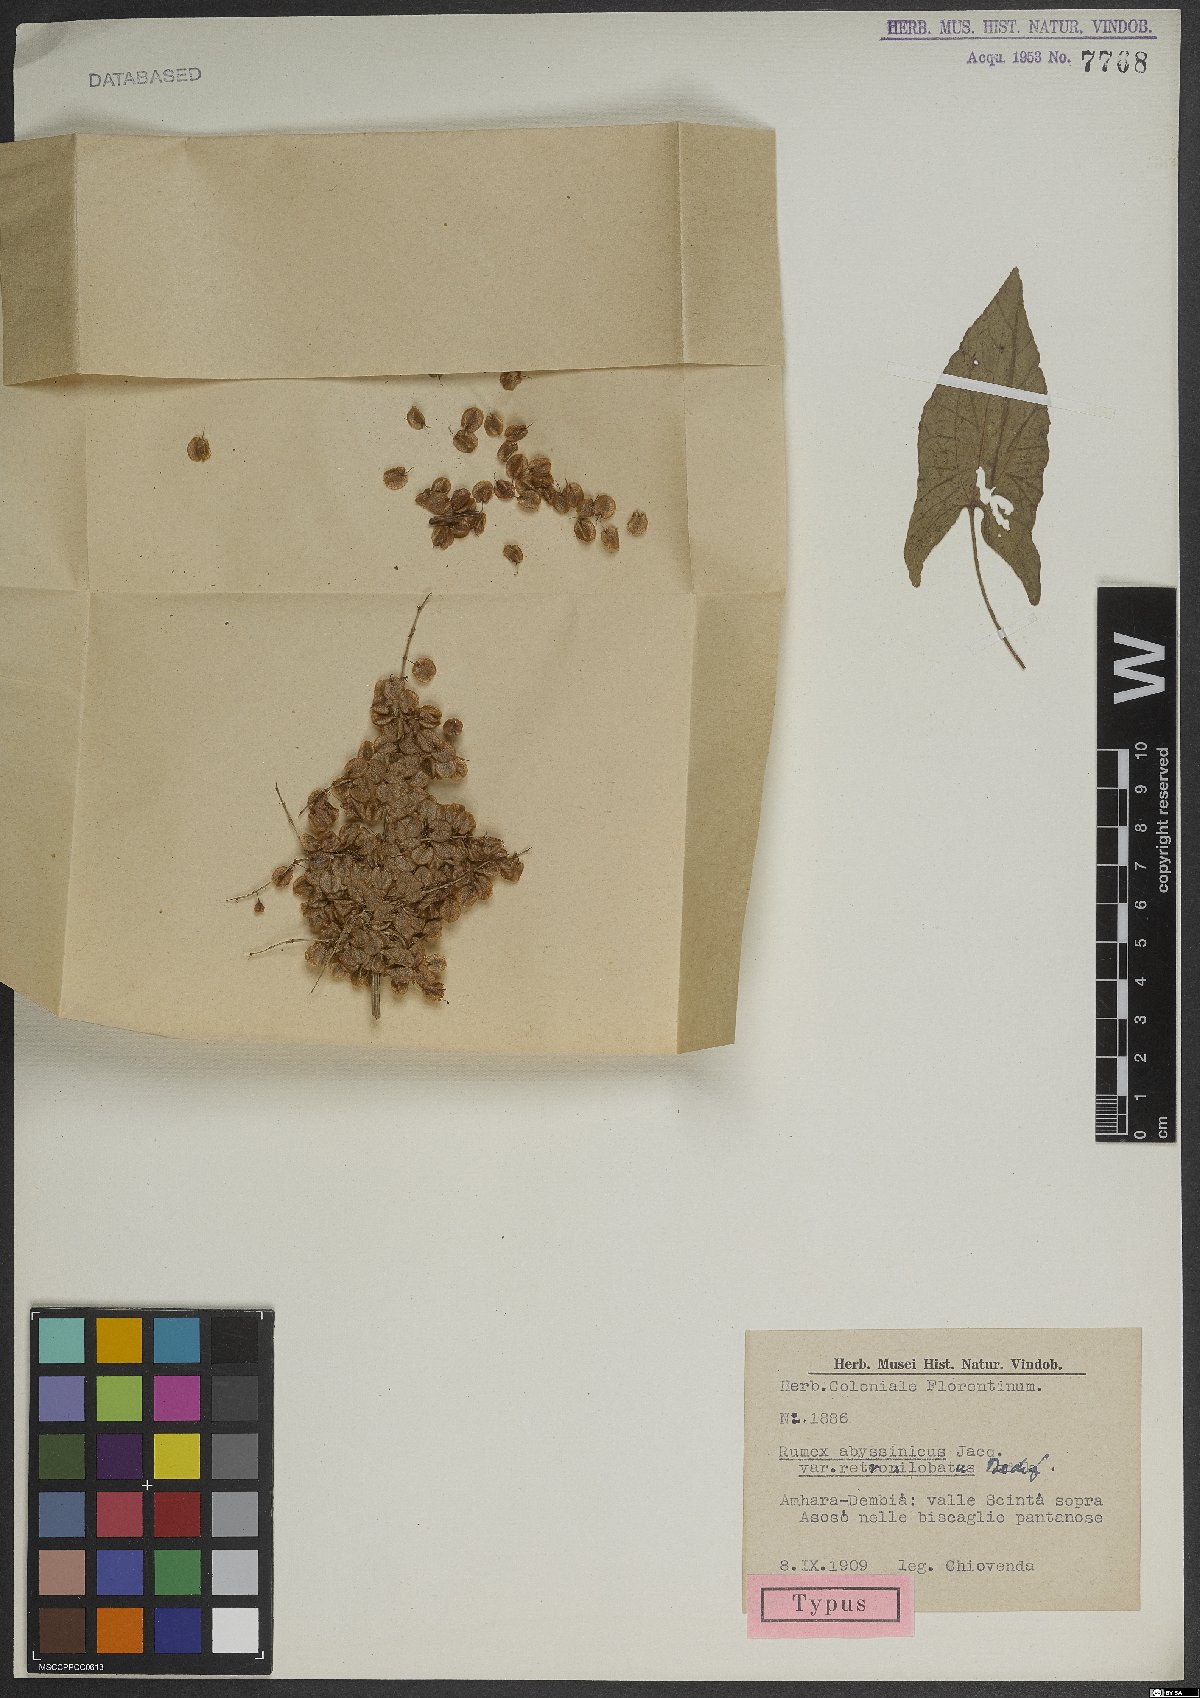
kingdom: Plantae
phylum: Tracheophyta
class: Magnoliopsida
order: Caryophyllales
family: Polygonaceae
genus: Rumex
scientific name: Rumex abyssinicus
